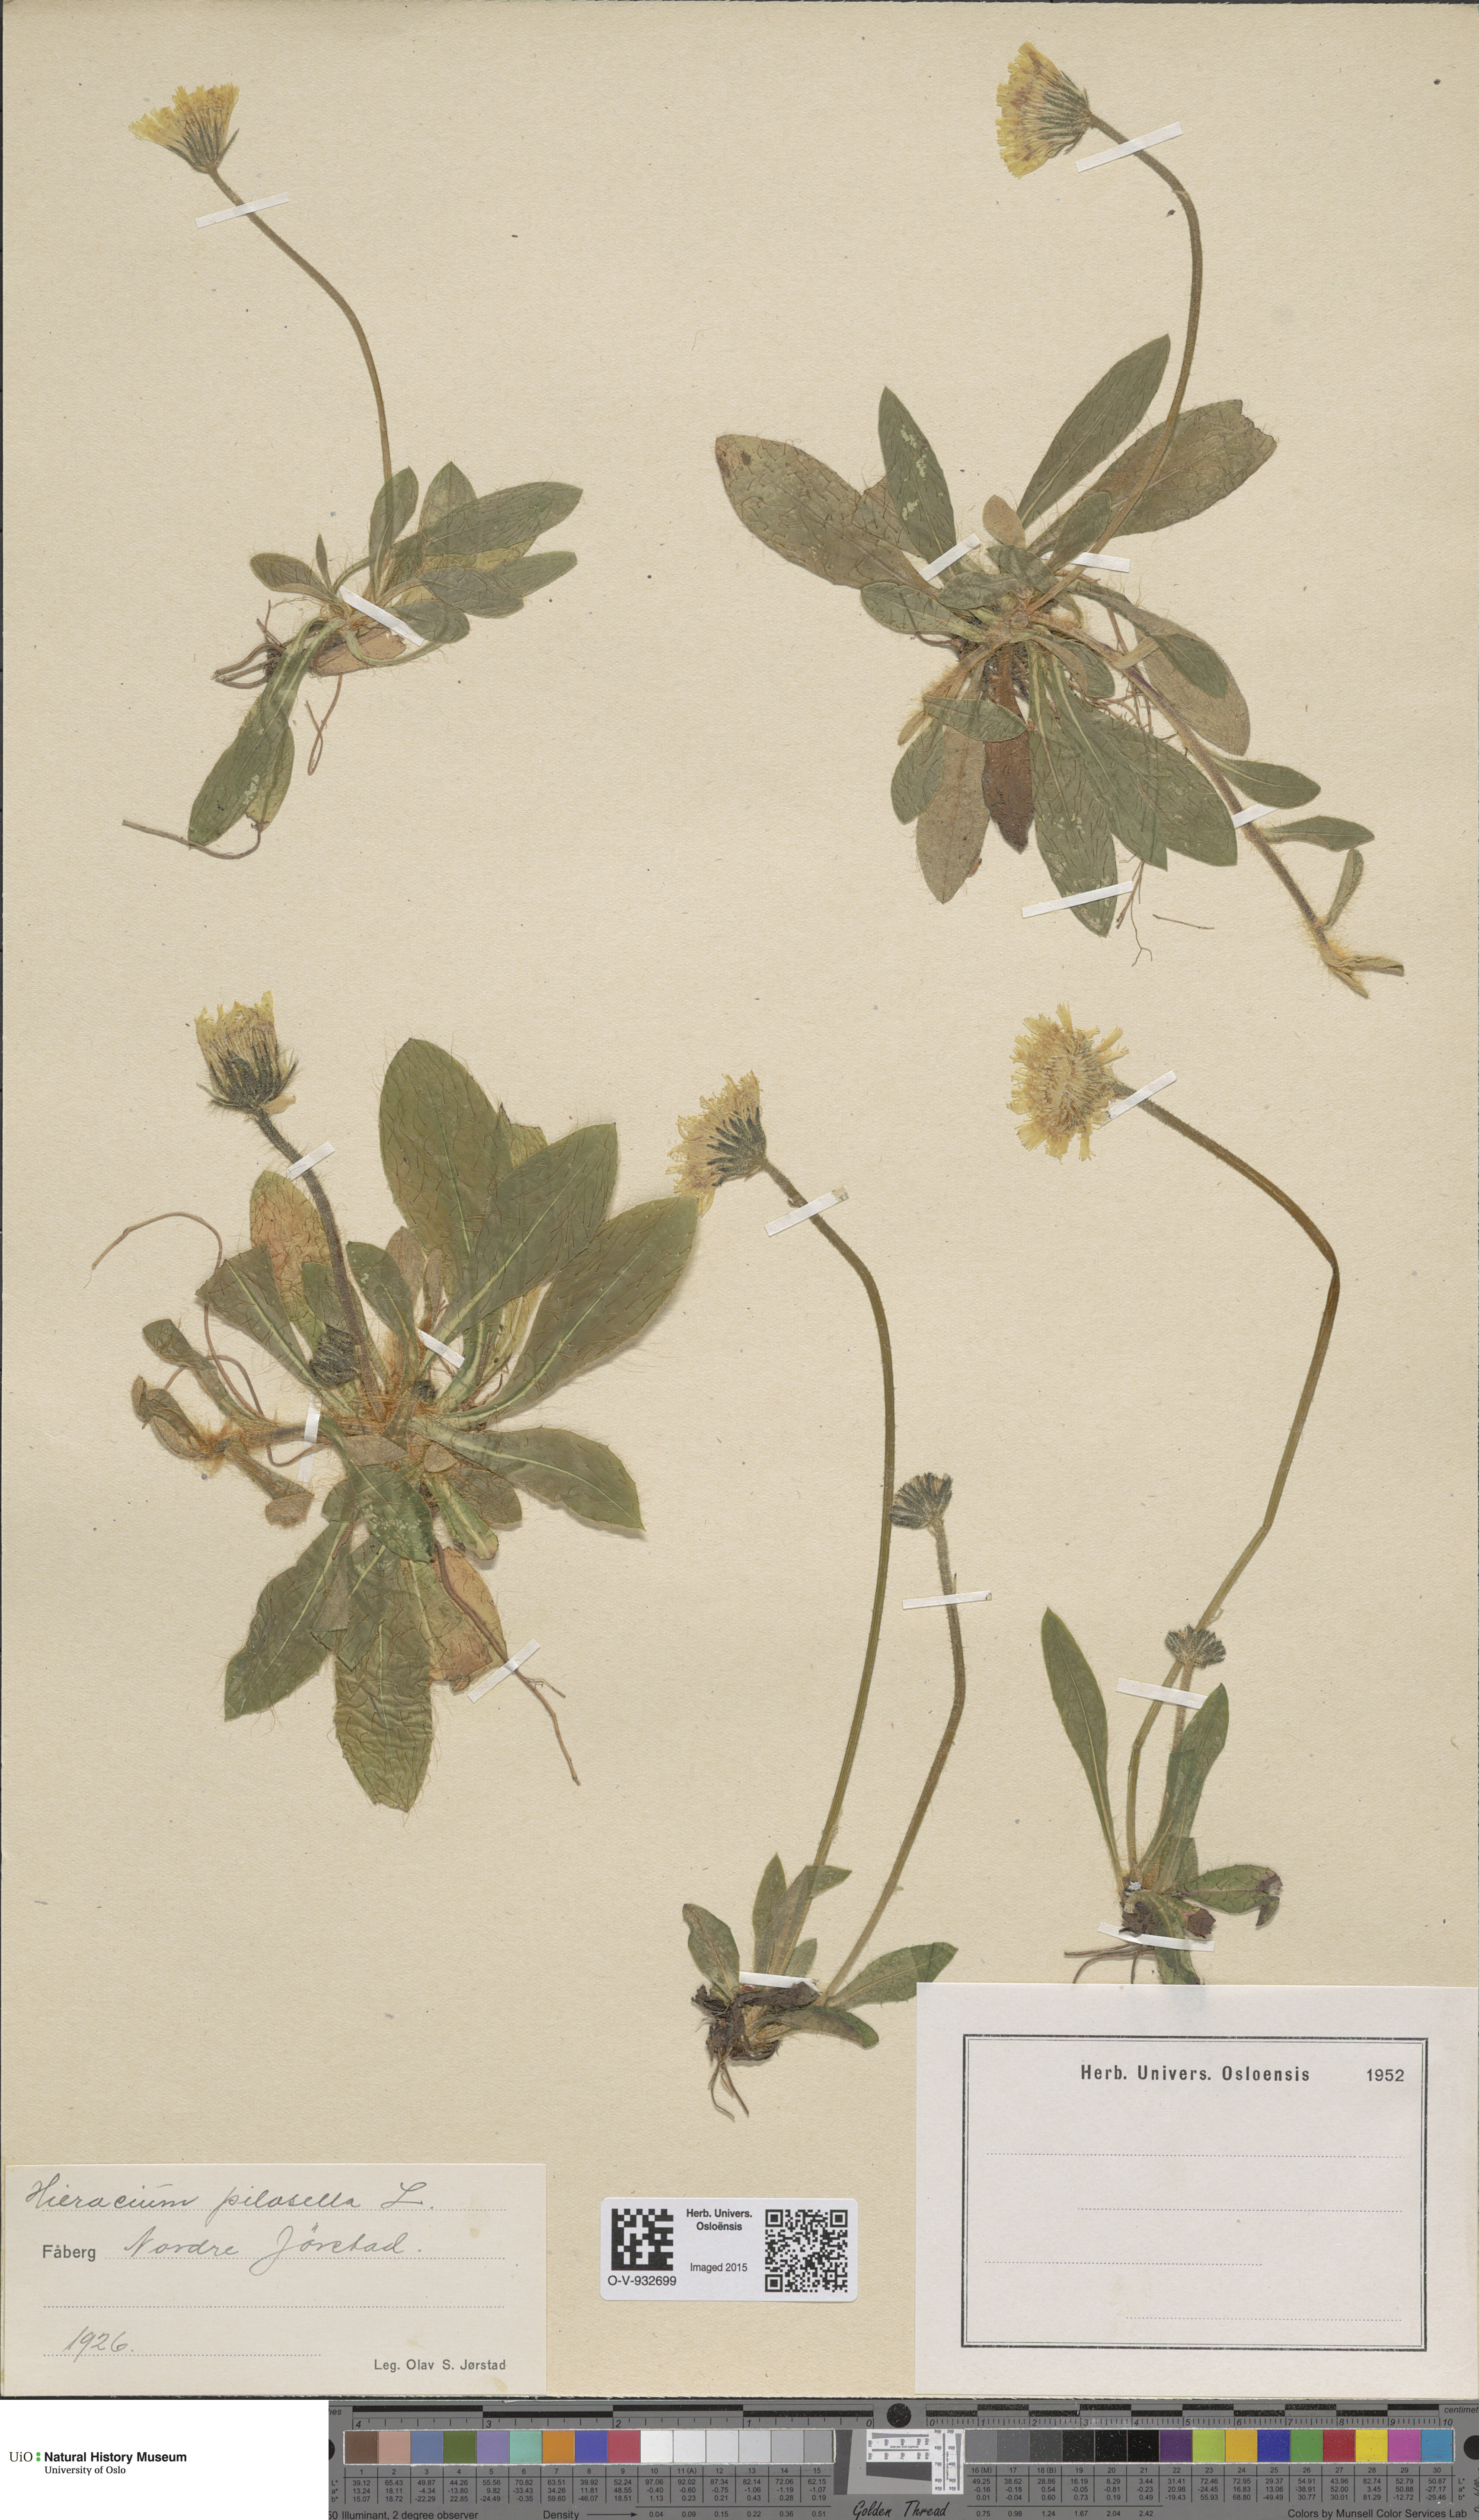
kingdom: Plantae
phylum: Tracheophyta
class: Magnoliopsida
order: Asterales
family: Asteraceae
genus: Pilosella
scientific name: Pilosella officinarum
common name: Mouse-ear hawkweed
